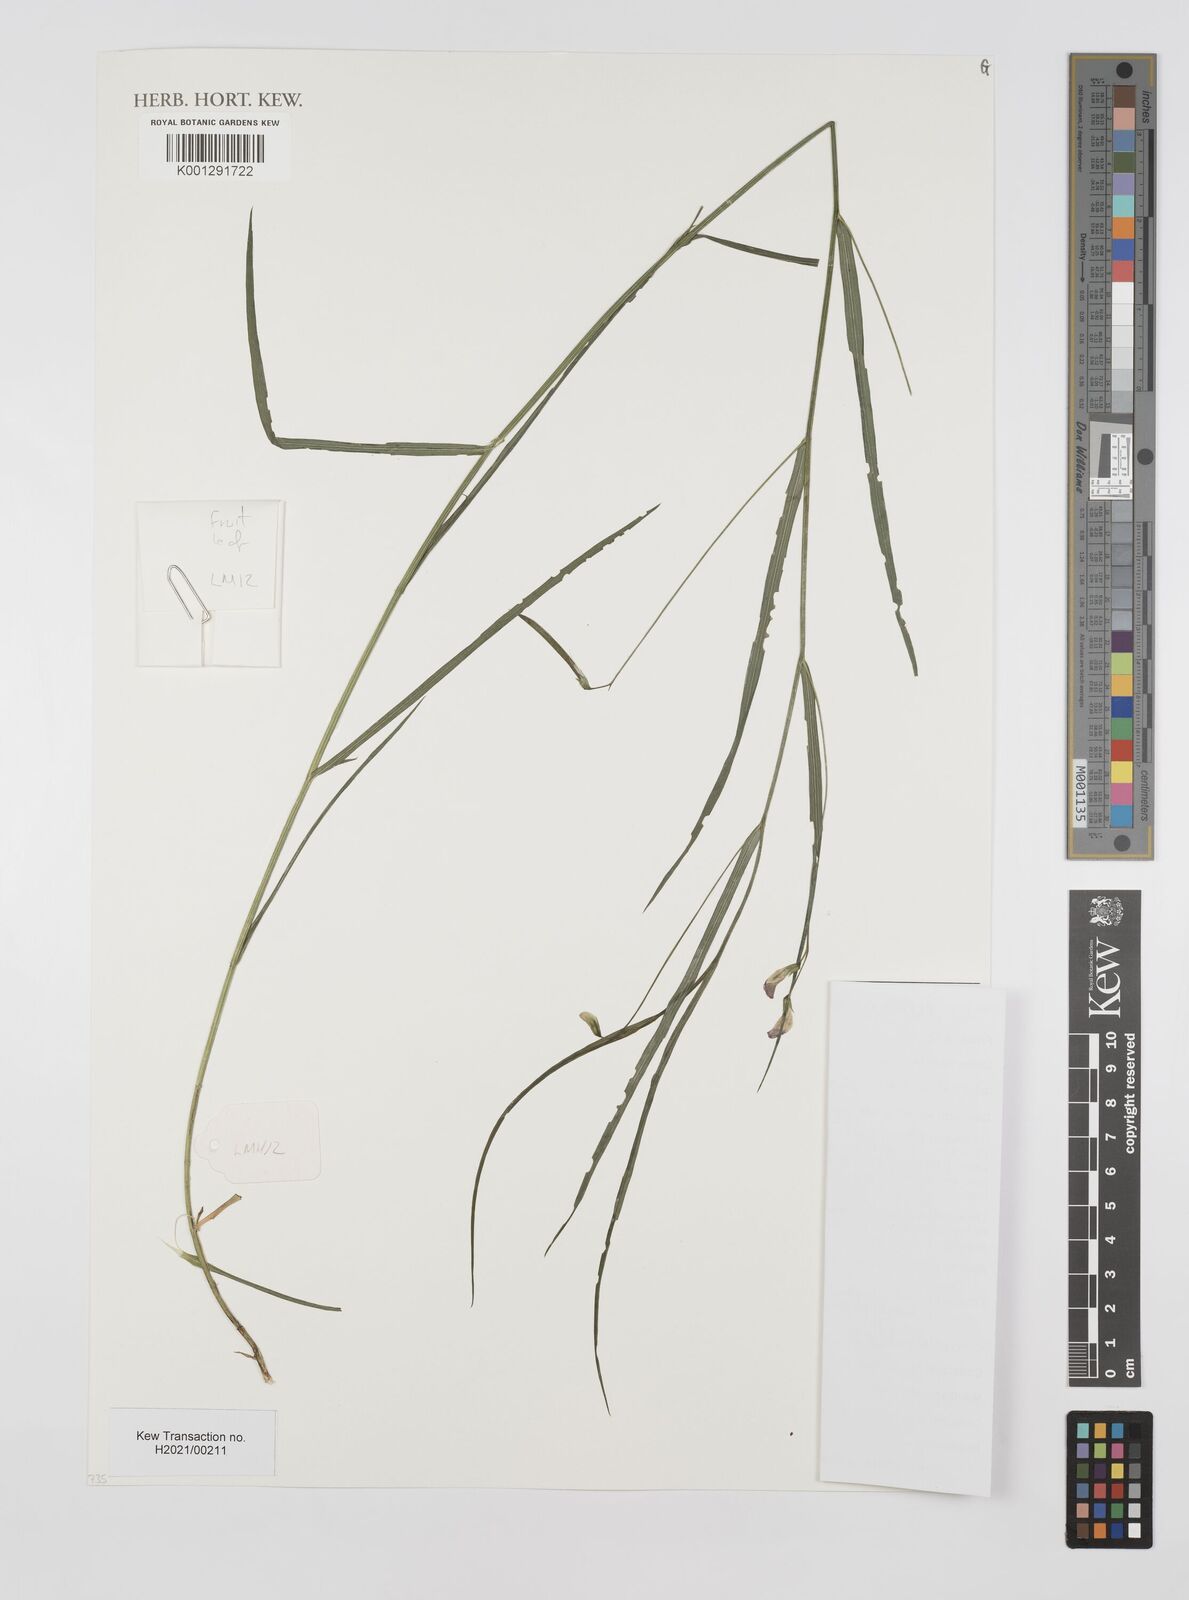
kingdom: Plantae
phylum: Tracheophyta
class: Magnoliopsida
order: Fabales
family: Fabaceae
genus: Lathyrus
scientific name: Lathyrus nissolia
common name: Grass vetchling
